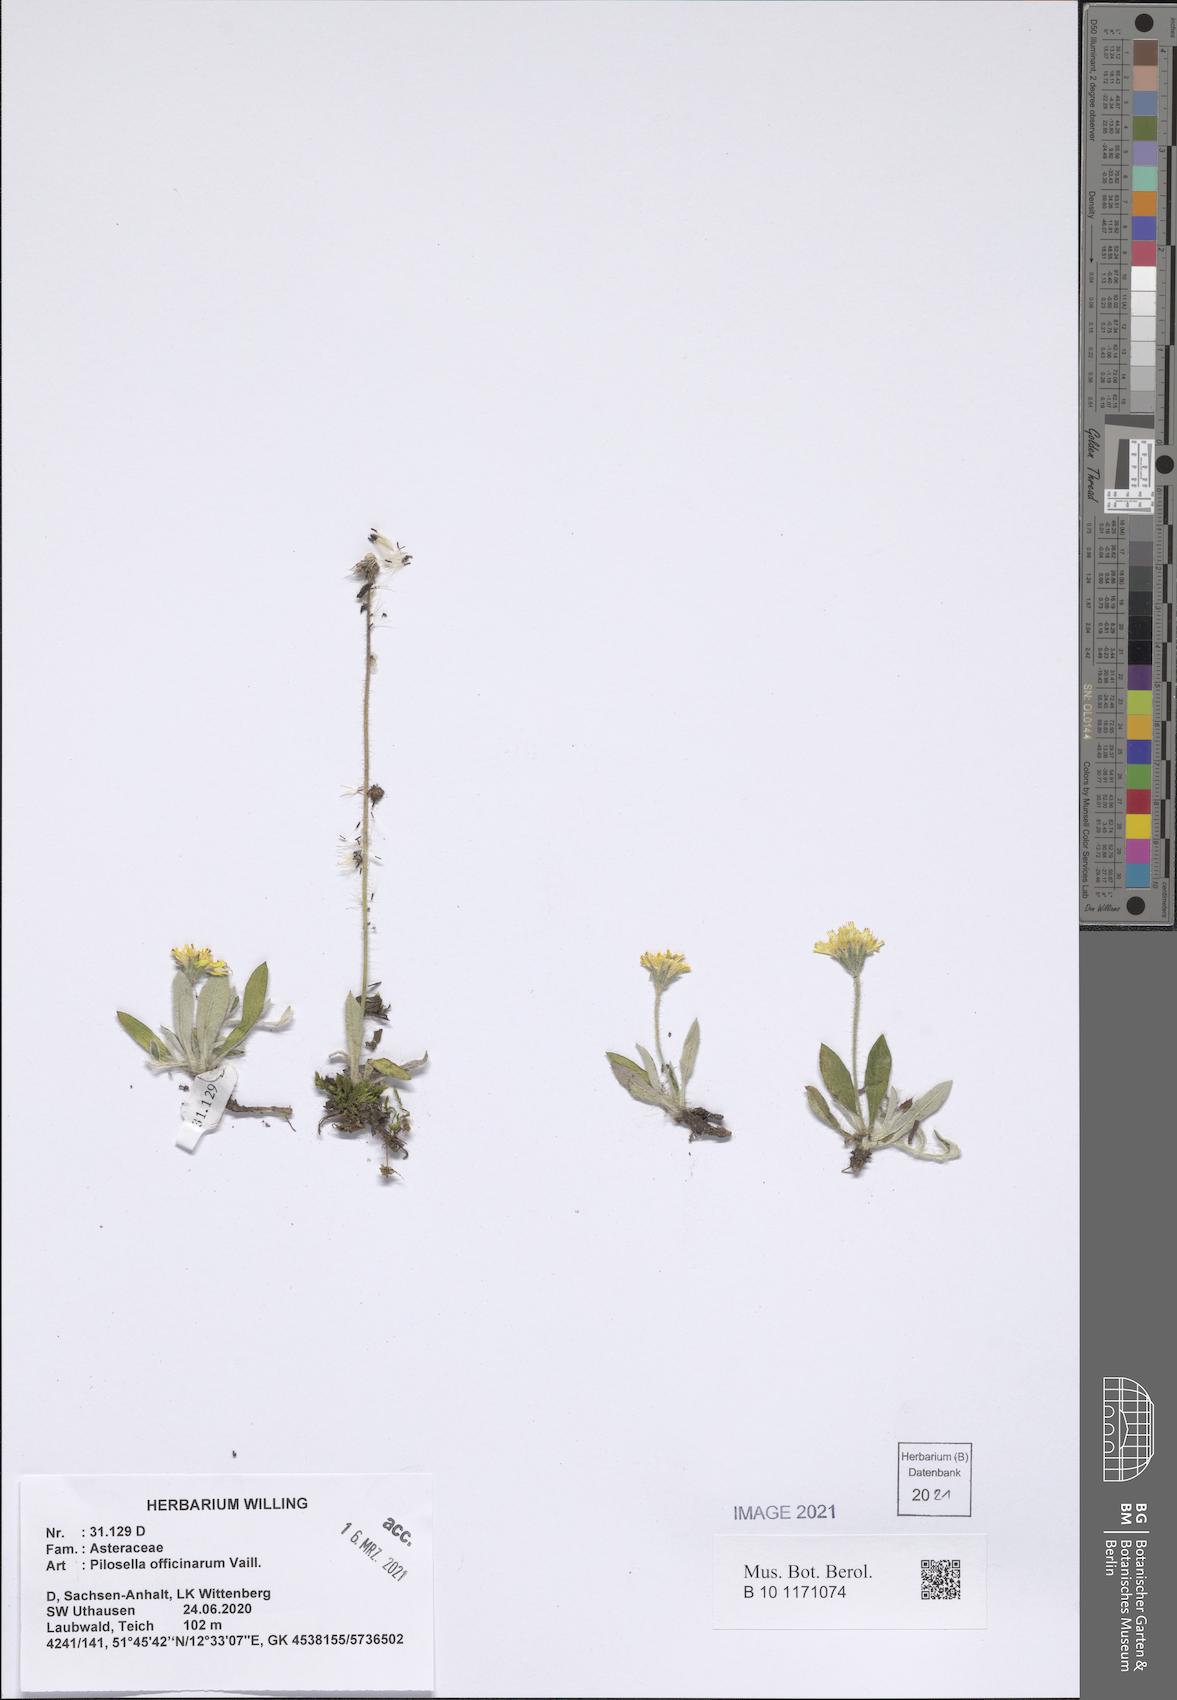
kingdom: Plantae
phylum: Tracheophyta
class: Magnoliopsida
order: Asterales
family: Asteraceae
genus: Pilosella
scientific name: Pilosella officinarum
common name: Mouse-ear hawkweed
